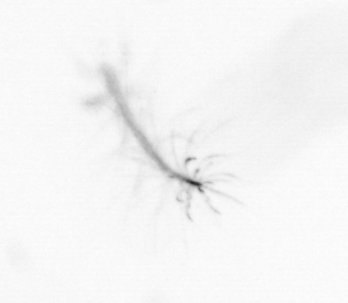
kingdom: Chromista
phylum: Ochrophyta
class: Bacillariophyceae
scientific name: Bacillariophyceae
